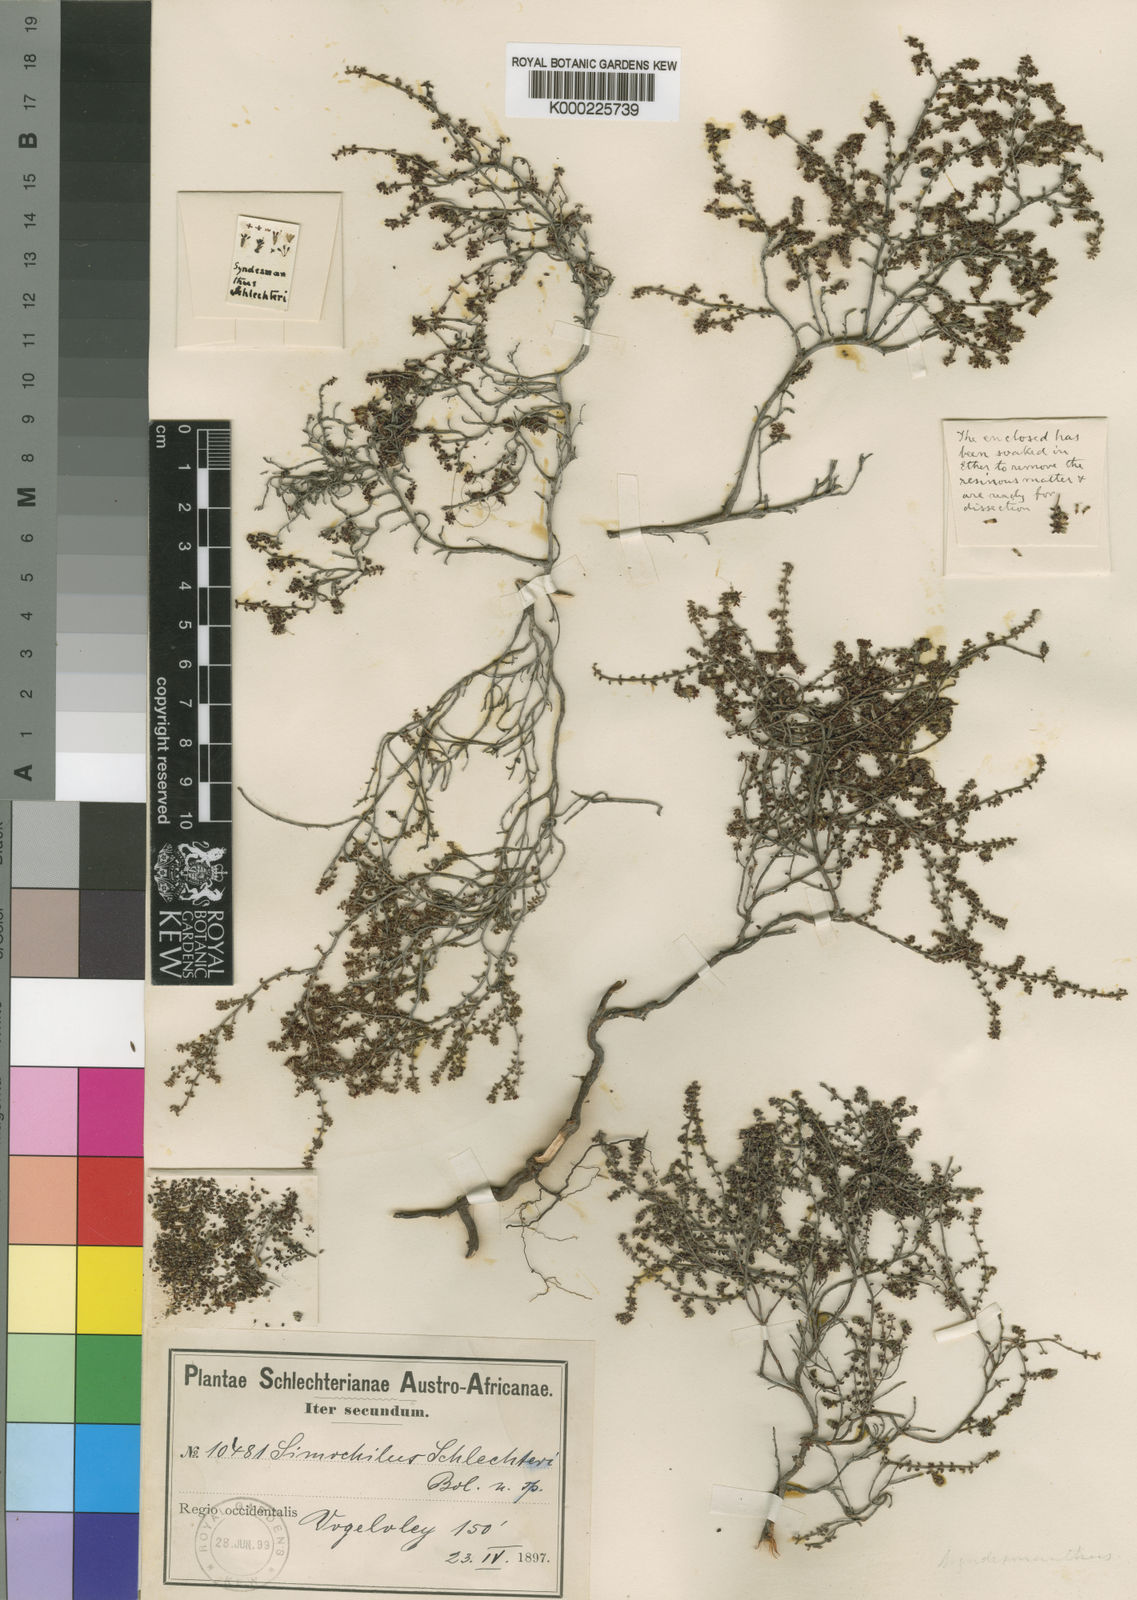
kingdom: Plantae
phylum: Tracheophyta
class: Magnoliopsida
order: Ericales
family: Ericaceae
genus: Erica
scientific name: Erica agglutinans
